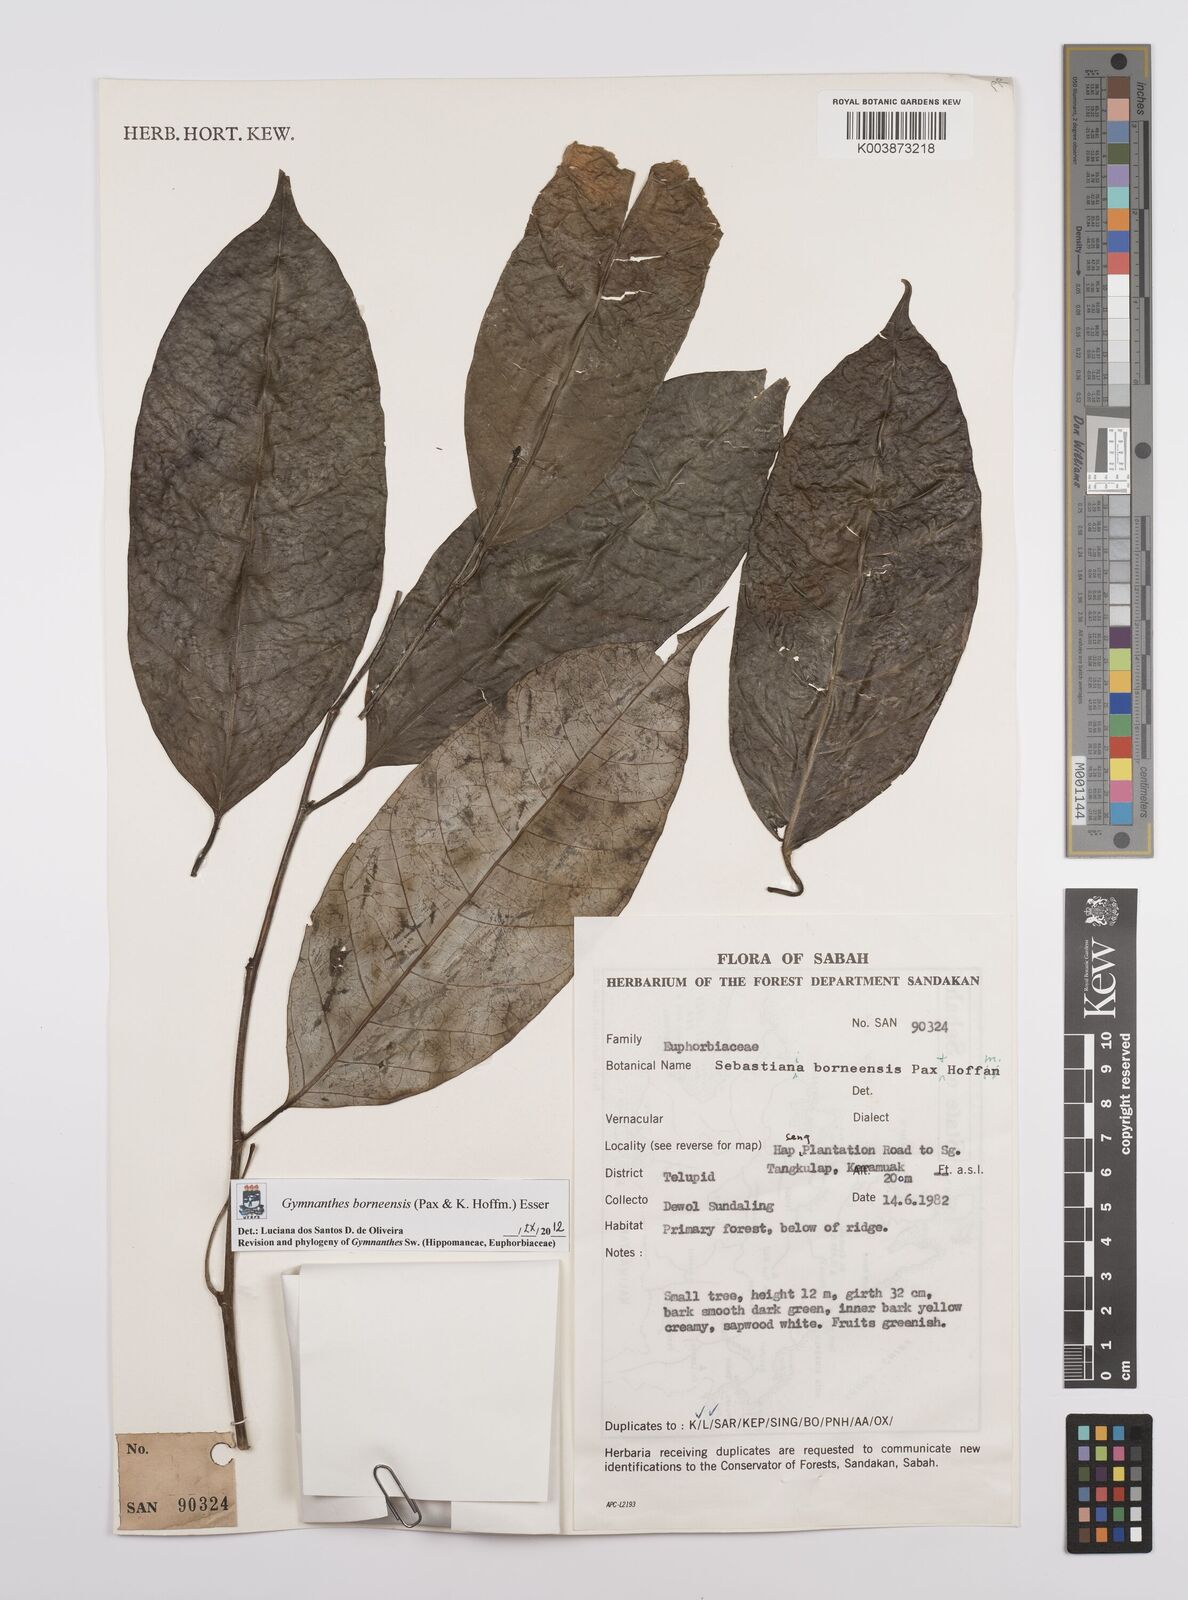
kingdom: Plantae
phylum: Tracheophyta
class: Magnoliopsida
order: Malpighiales
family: Euphorbiaceae
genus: Gymnanthes
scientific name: Gymnanthes borneensis
